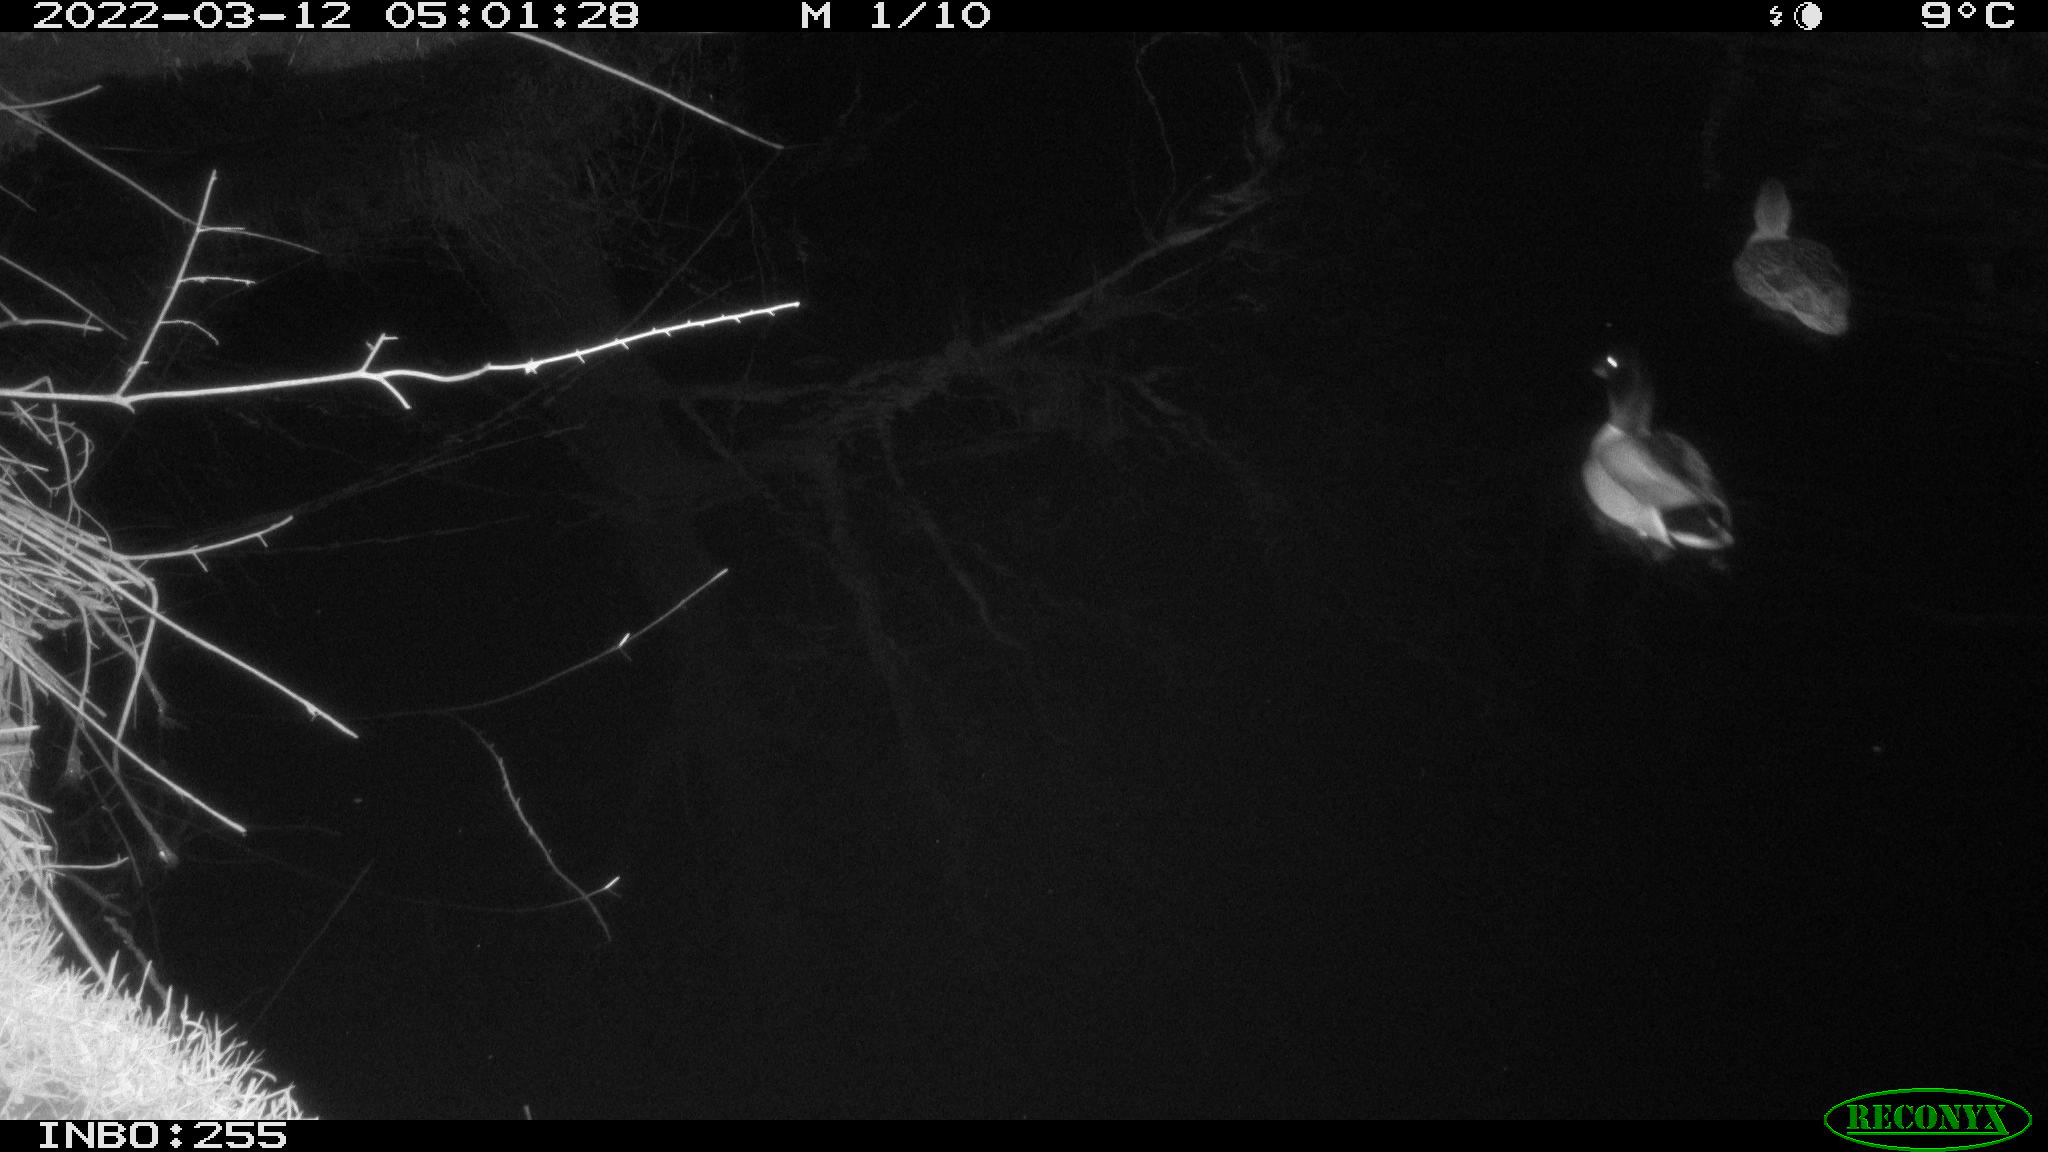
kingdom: Animalia
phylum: Chordata
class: Aves
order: Anseriformes
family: Anatidae
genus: Anas
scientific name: Anas platyrhynchos
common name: Mallard
